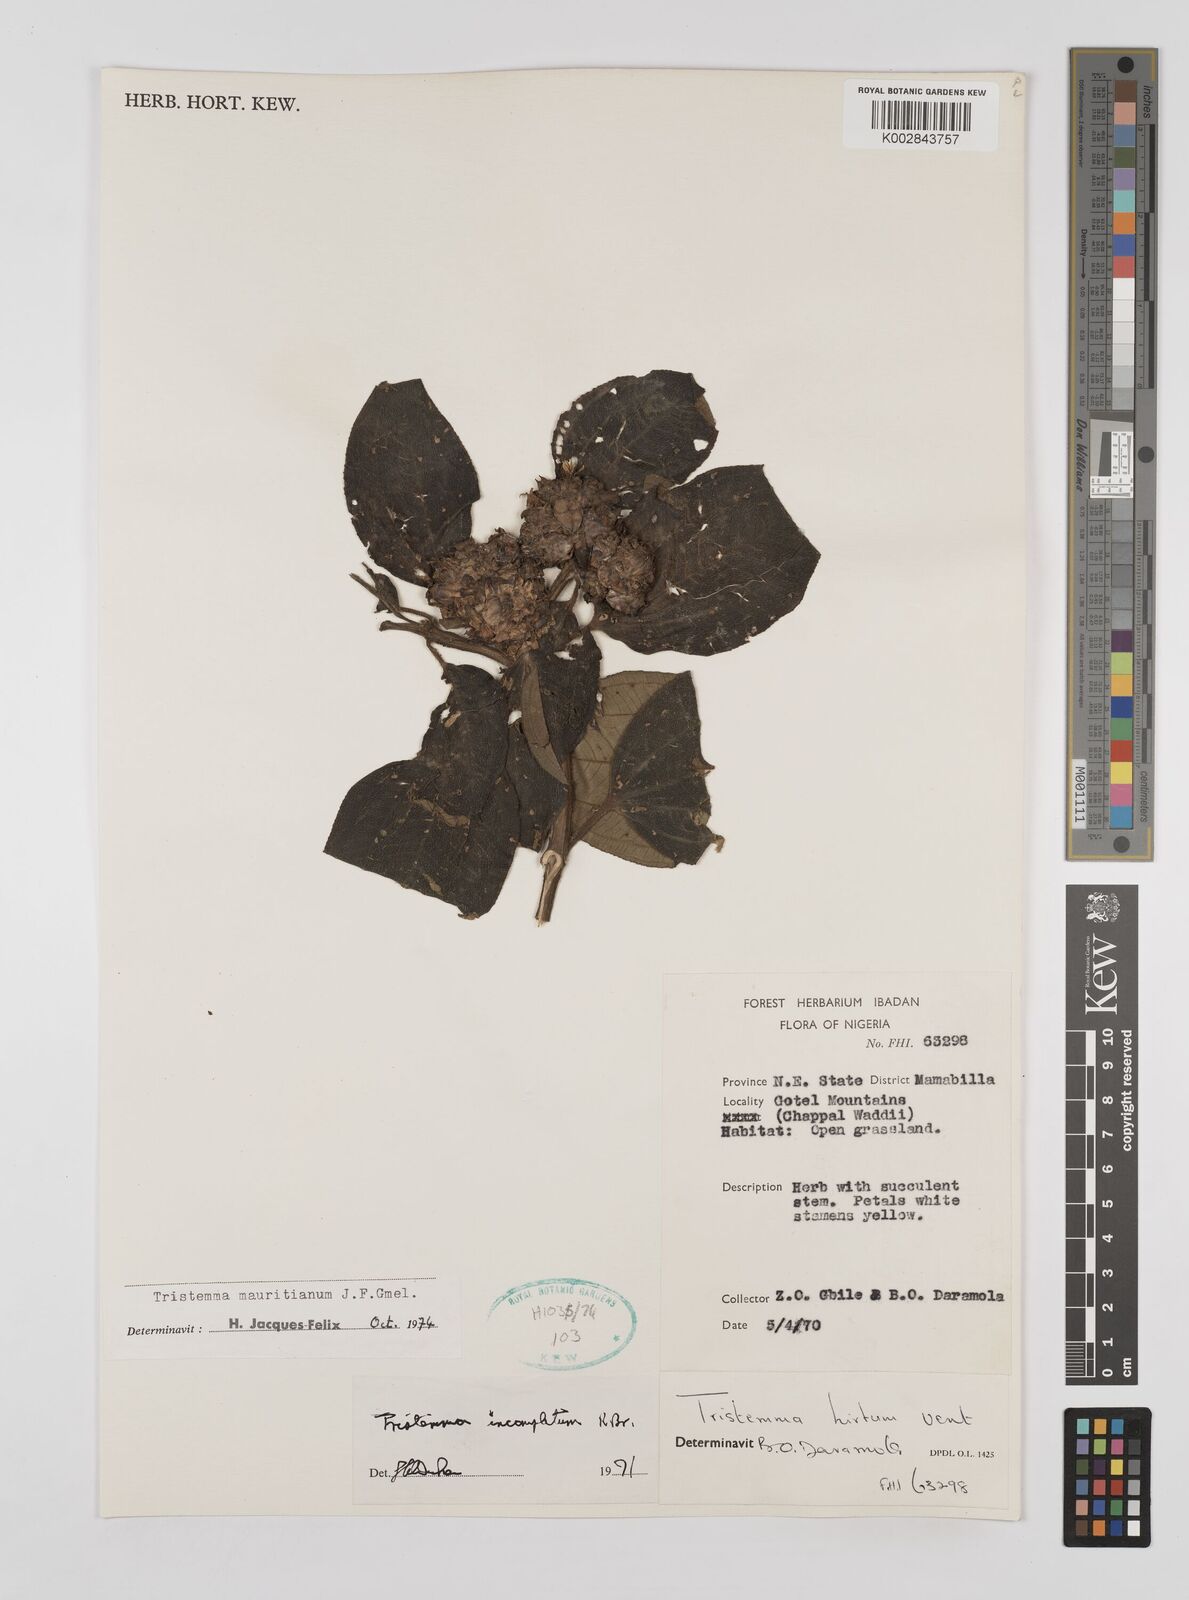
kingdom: Plantae
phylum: Tracheophyta
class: Magnoliopsida
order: Myrtales
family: Melastomataceae
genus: Tristemma
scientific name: Tristemma mauritianum
